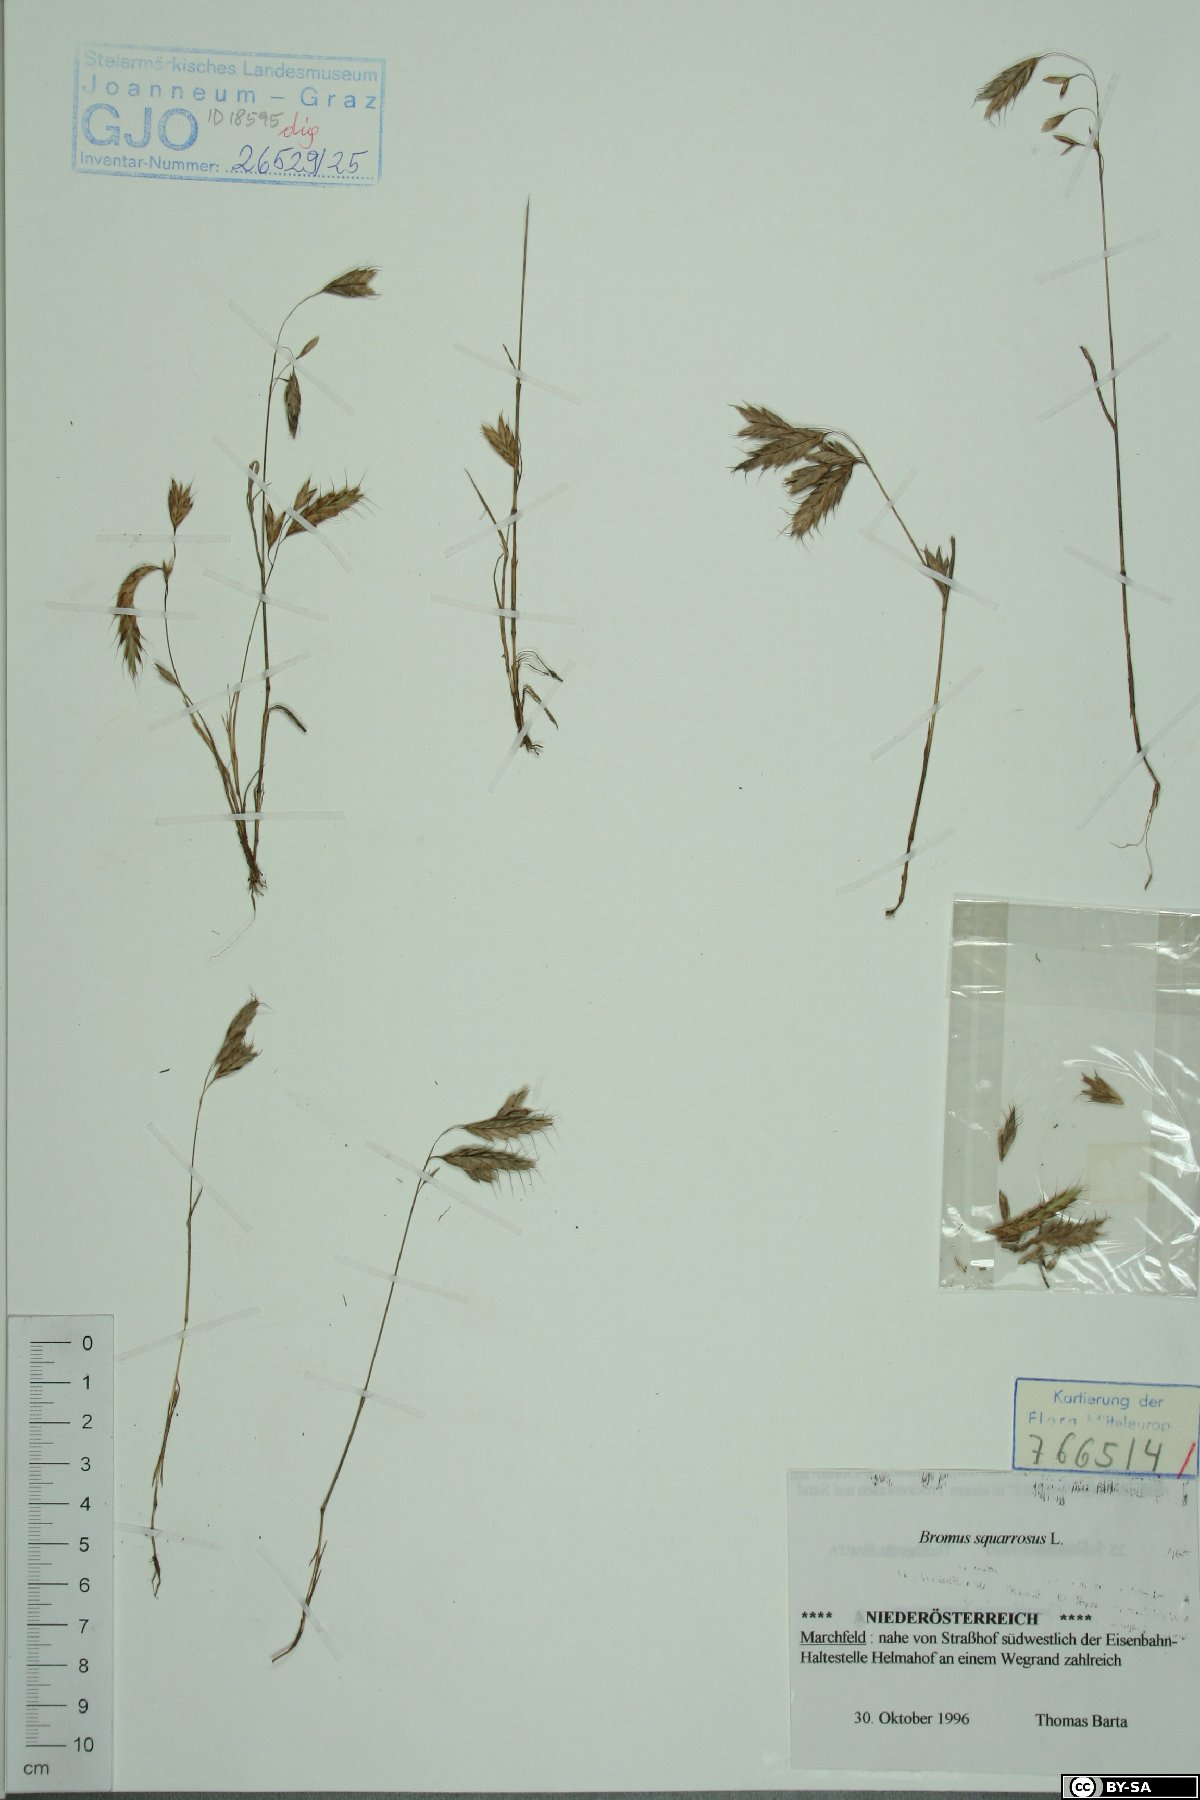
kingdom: Plantae
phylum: Tracheophyta
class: Liliopsida
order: Poales
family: Poaceae
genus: Bromus
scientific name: Bromus squarrosus
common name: Corn brome
